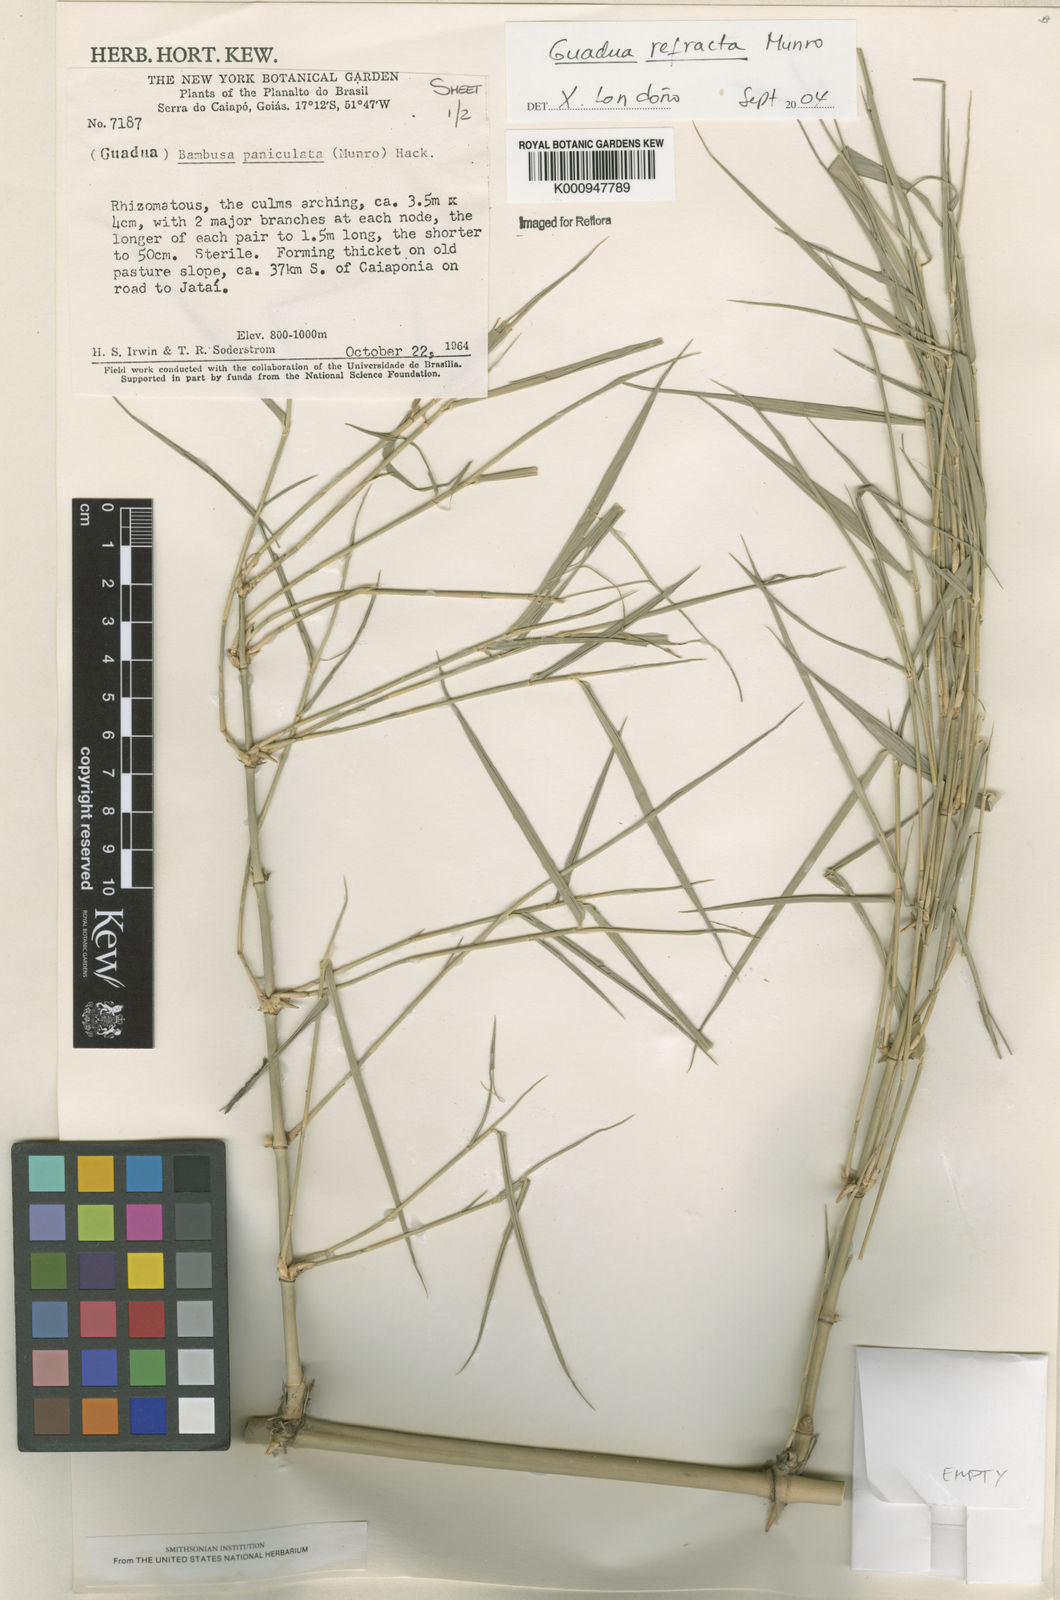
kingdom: Plantae
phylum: Tracheophyta
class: Liliopsida
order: Poales
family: Poaceae
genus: Guadua
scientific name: Guadua
